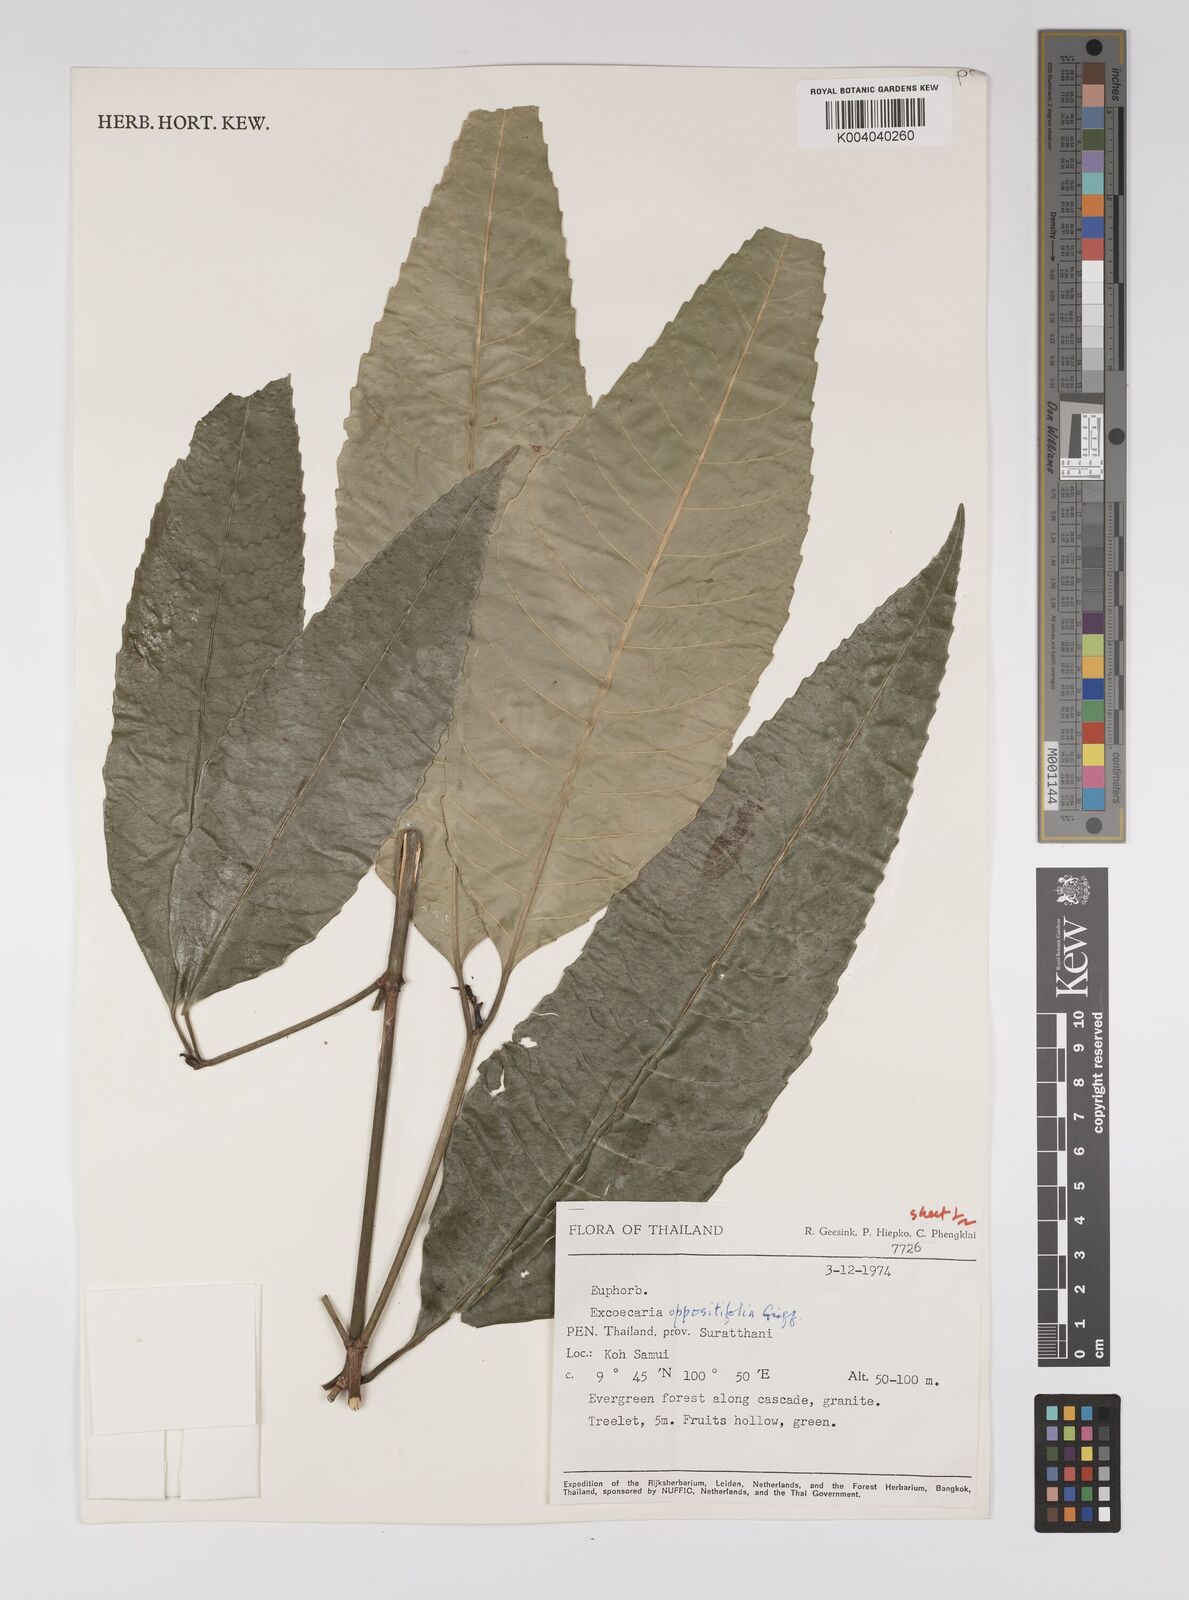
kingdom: Plantae
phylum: Tracheophyta
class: Magnoliopsida
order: Malpighiales
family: Euphorbiaceae
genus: Excoecaria
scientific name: Excoecaria oppositifolia
